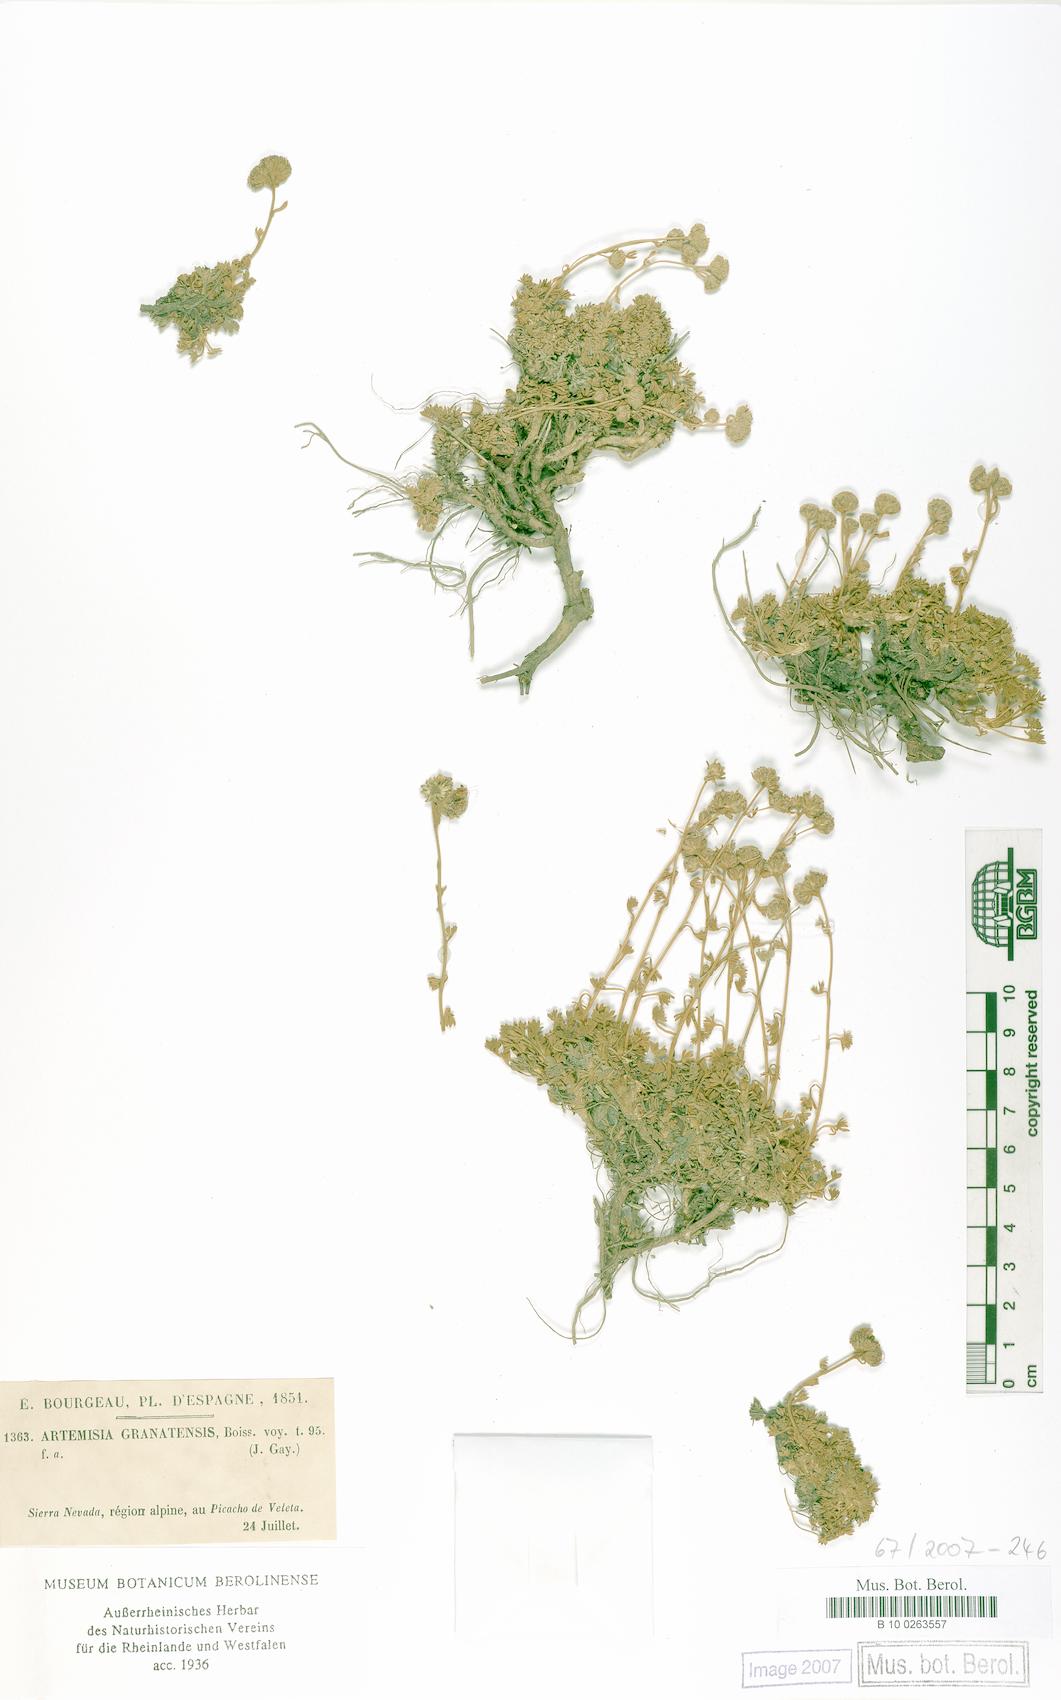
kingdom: Plantae
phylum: Tracheophyta
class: Magnoliopsida
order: Asterales
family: Asteraceae
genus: Artemisia
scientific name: Artemisia granatensis
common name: Royal chamomile
